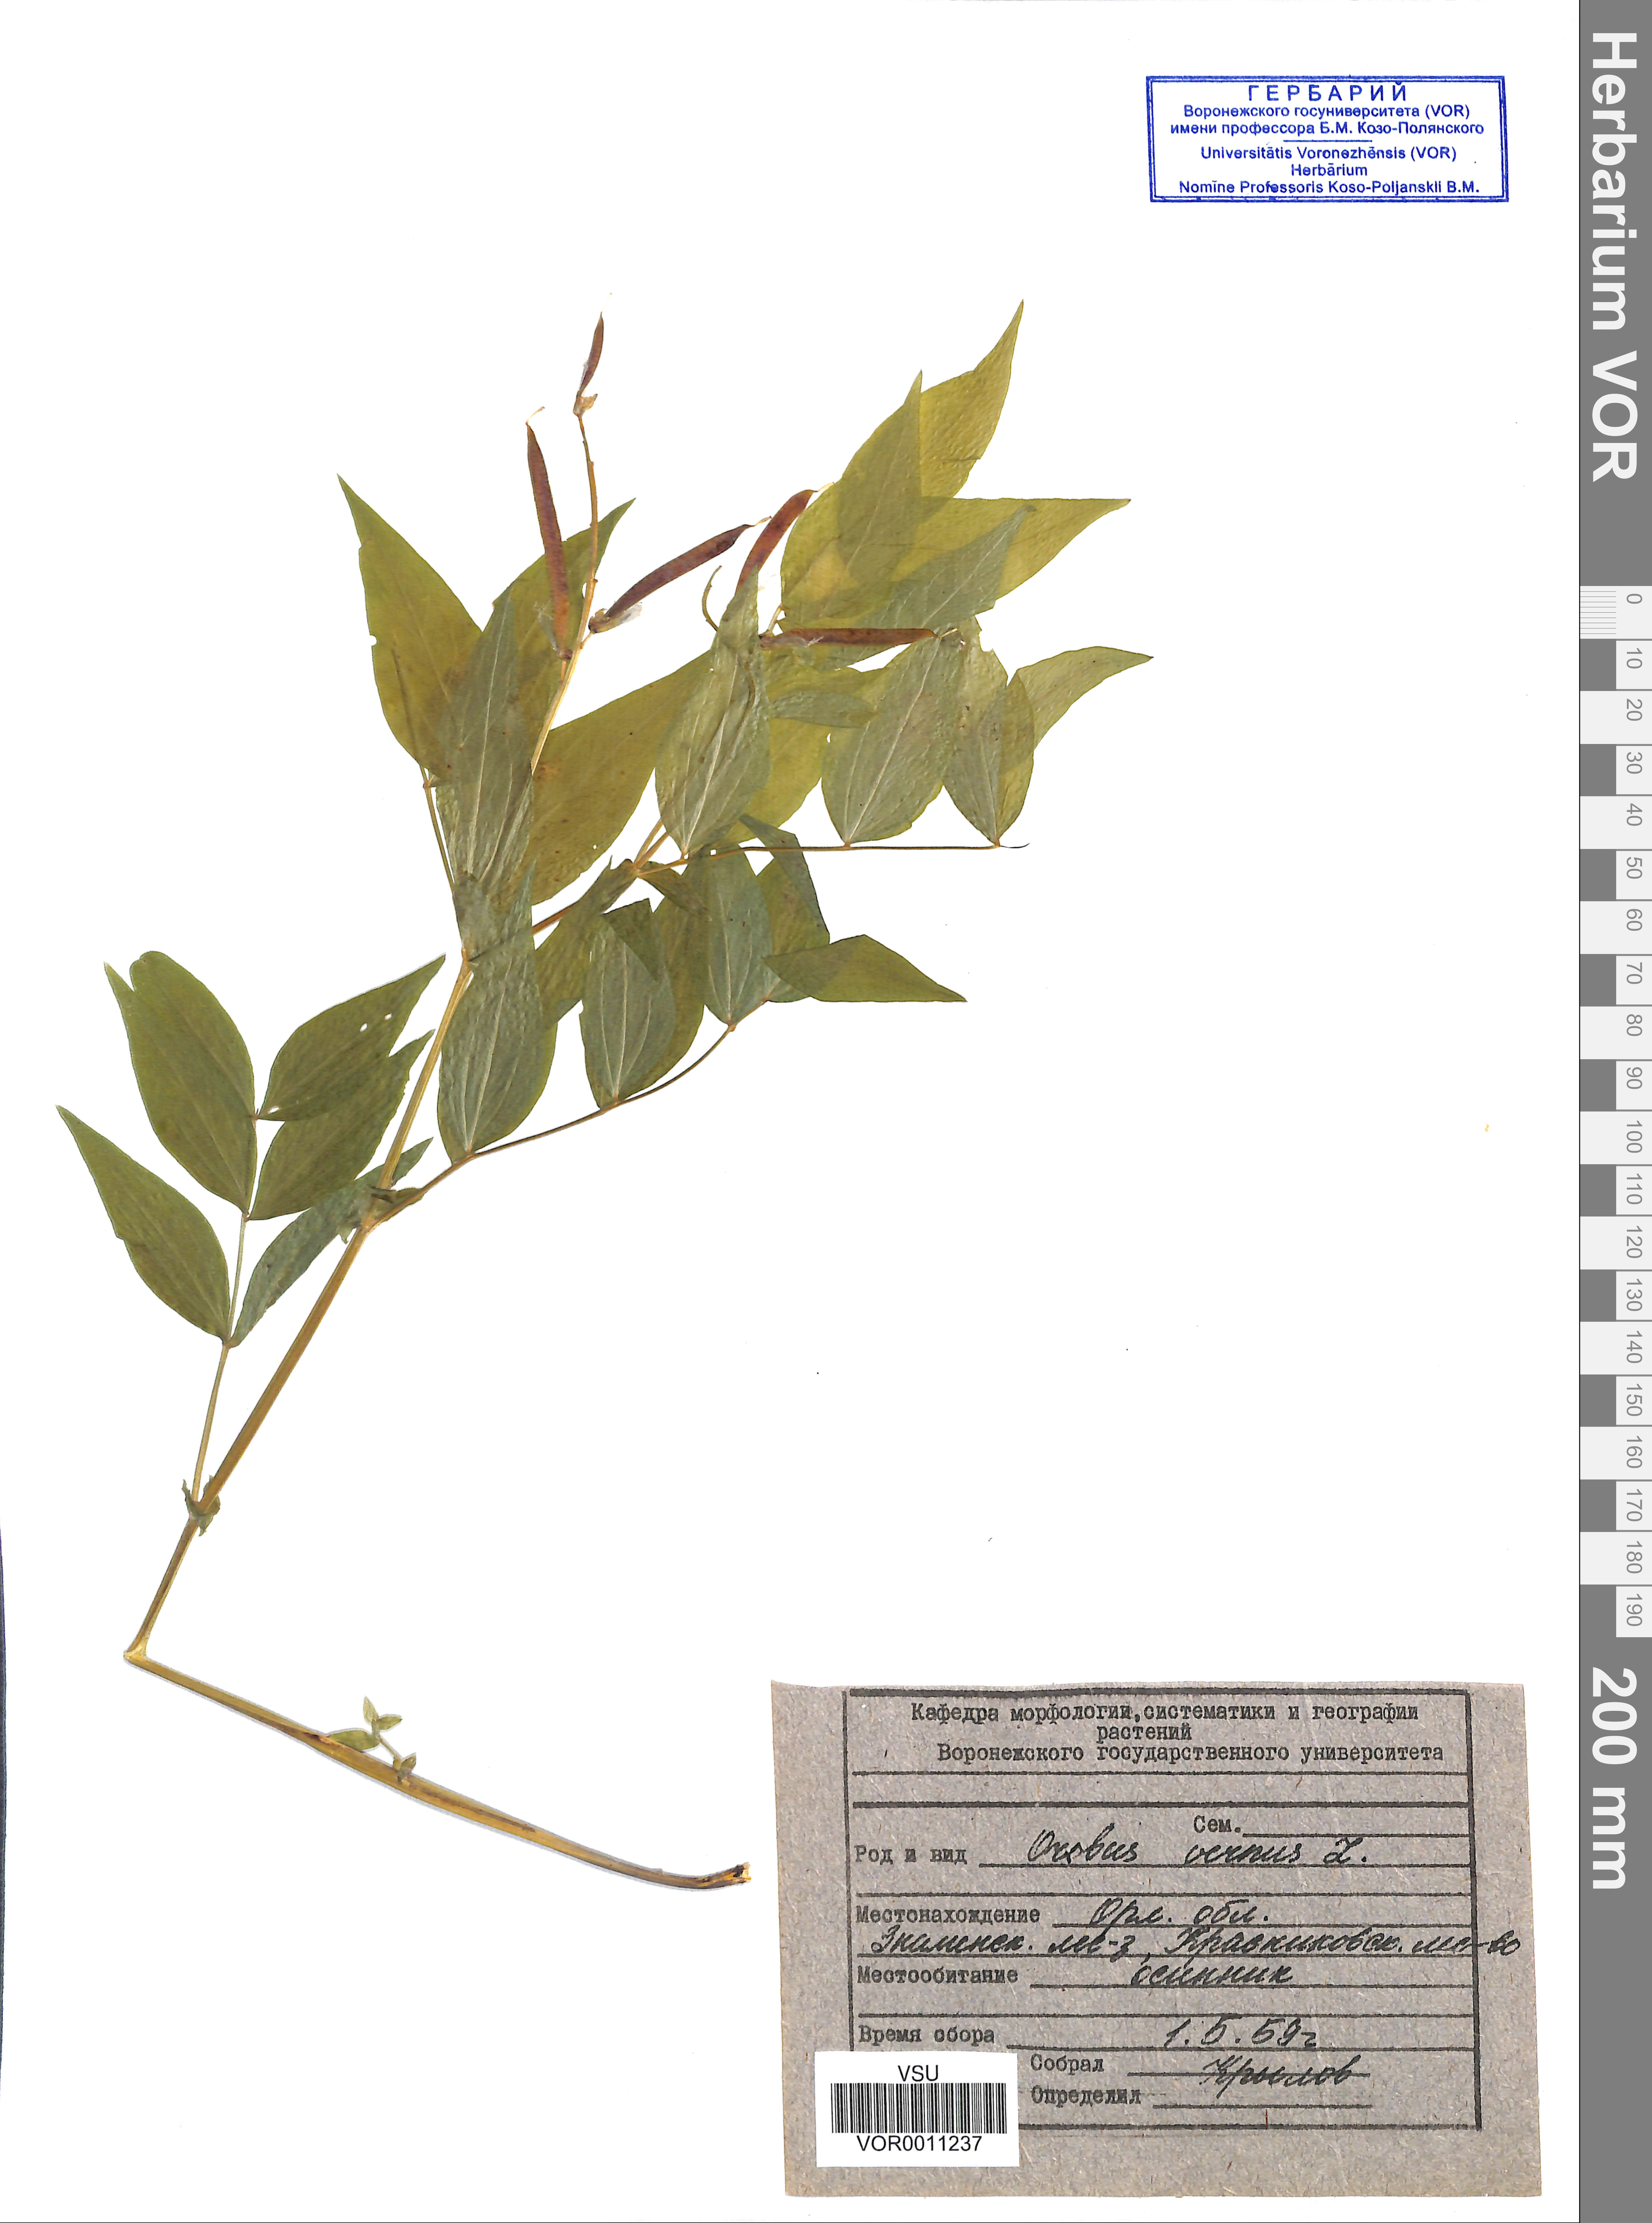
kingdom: Plantae
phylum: Tracheophyta
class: Magnoliopsida
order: Fabales
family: Fabaceae
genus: Lathyrus
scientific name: Lathyrus vernus
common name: Spring pea
